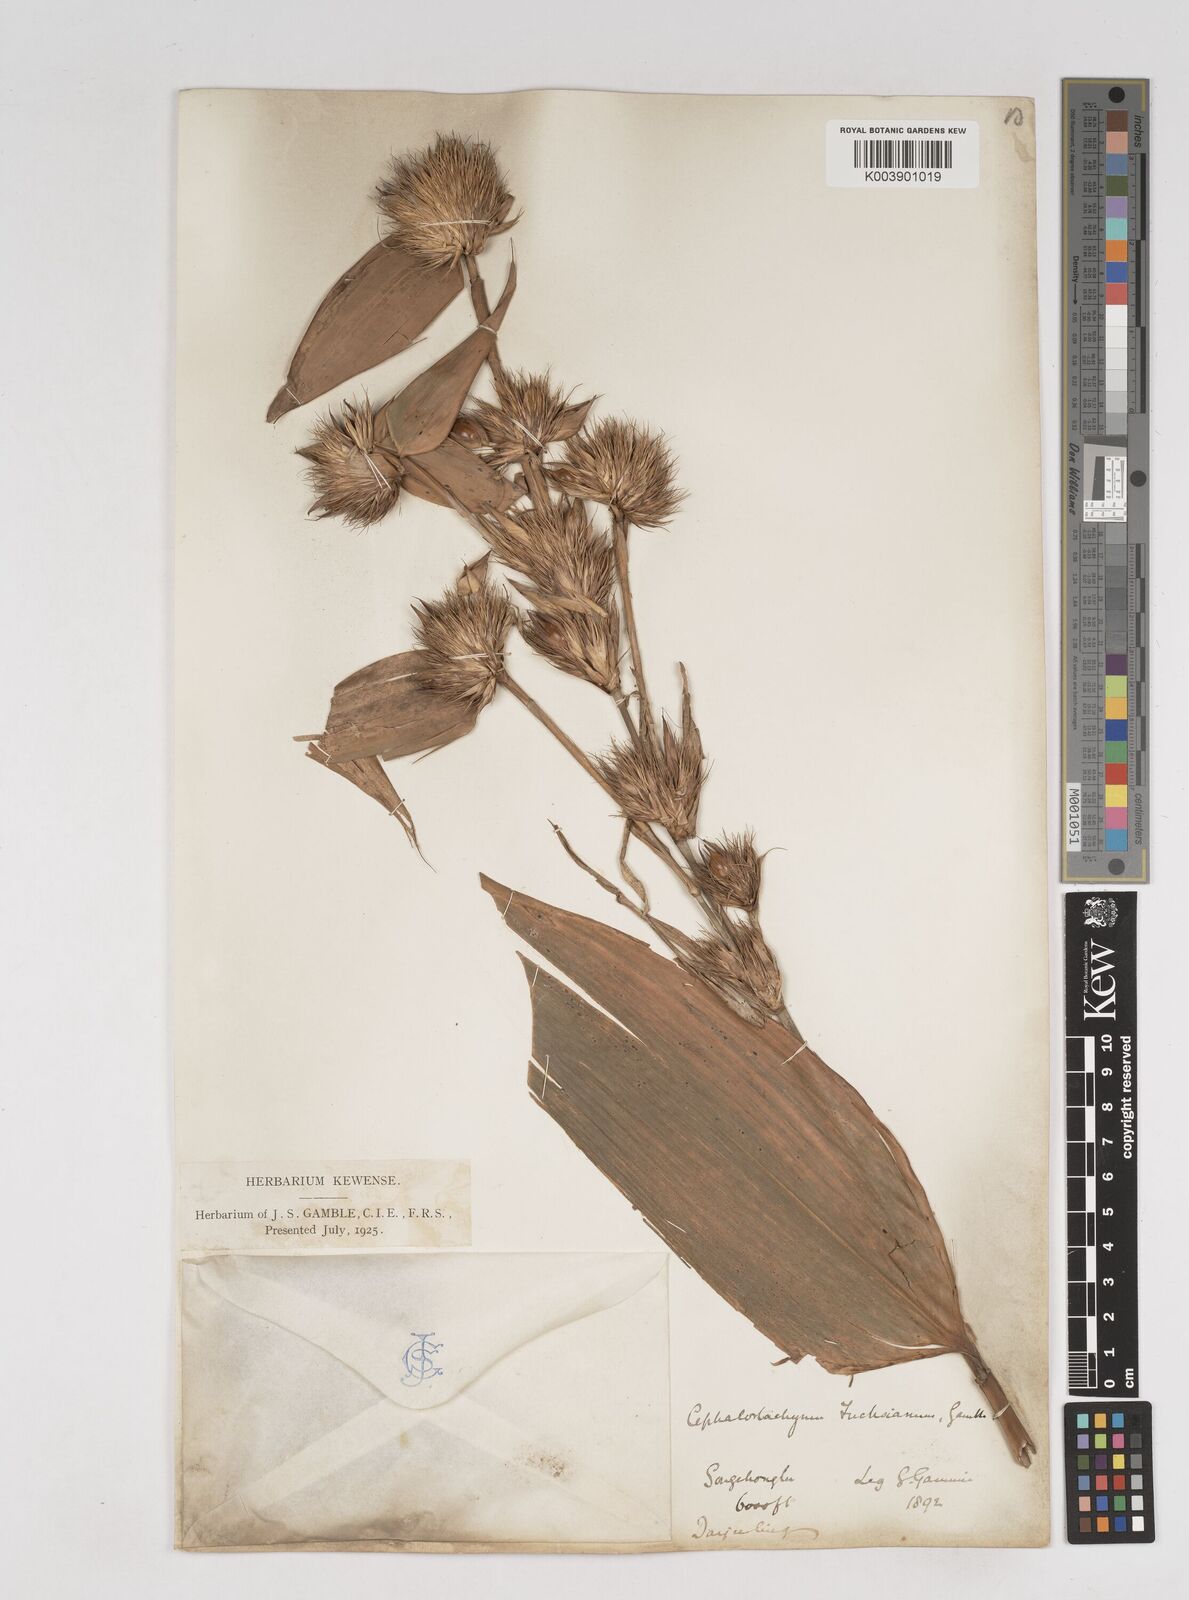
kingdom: Plantae
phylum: Tracheophyta
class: Liliopsida
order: Poales
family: Poaceae
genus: Cephalostachyum
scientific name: Cephalostachyum latifolium
